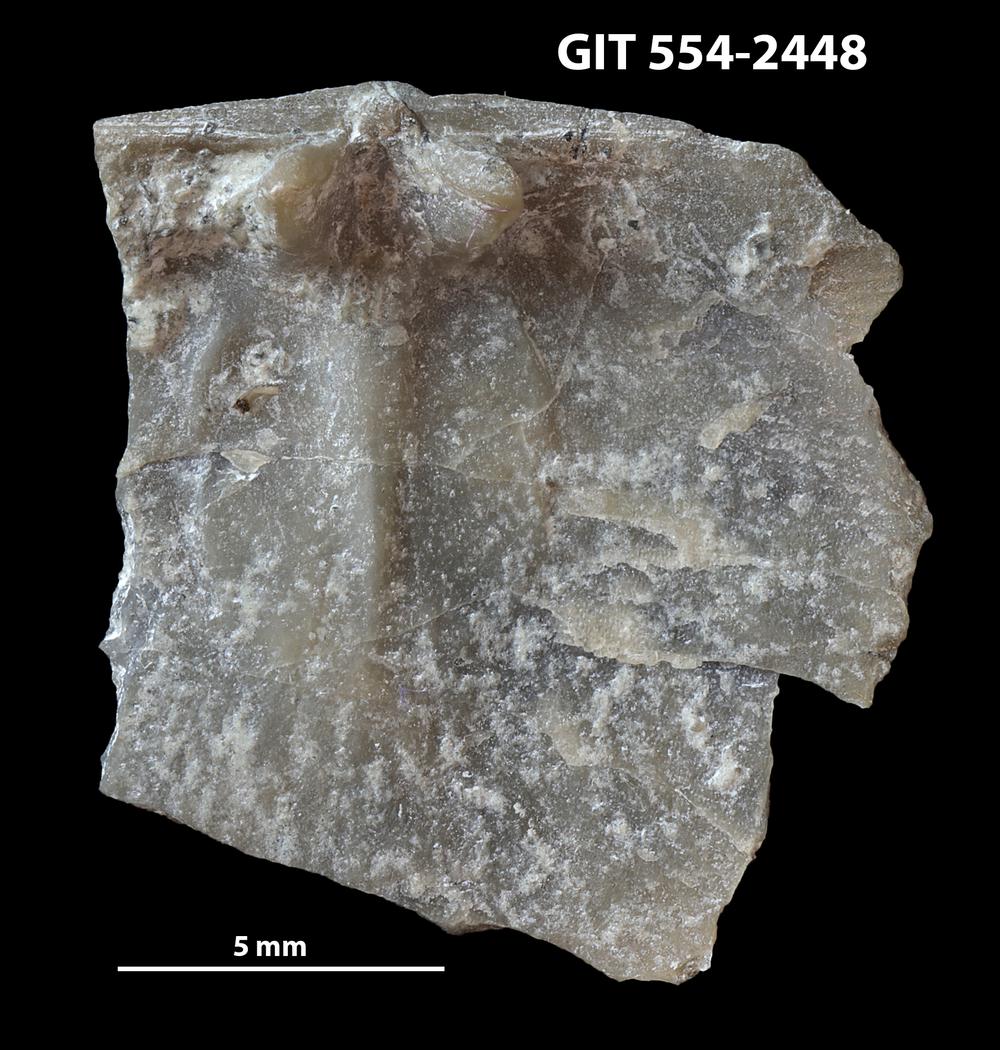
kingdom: Animalia
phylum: Brachiopoda
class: Rhynchonellata
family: Dalmanellidae
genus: Dalmanella
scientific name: Dalmanella rosensteinae
